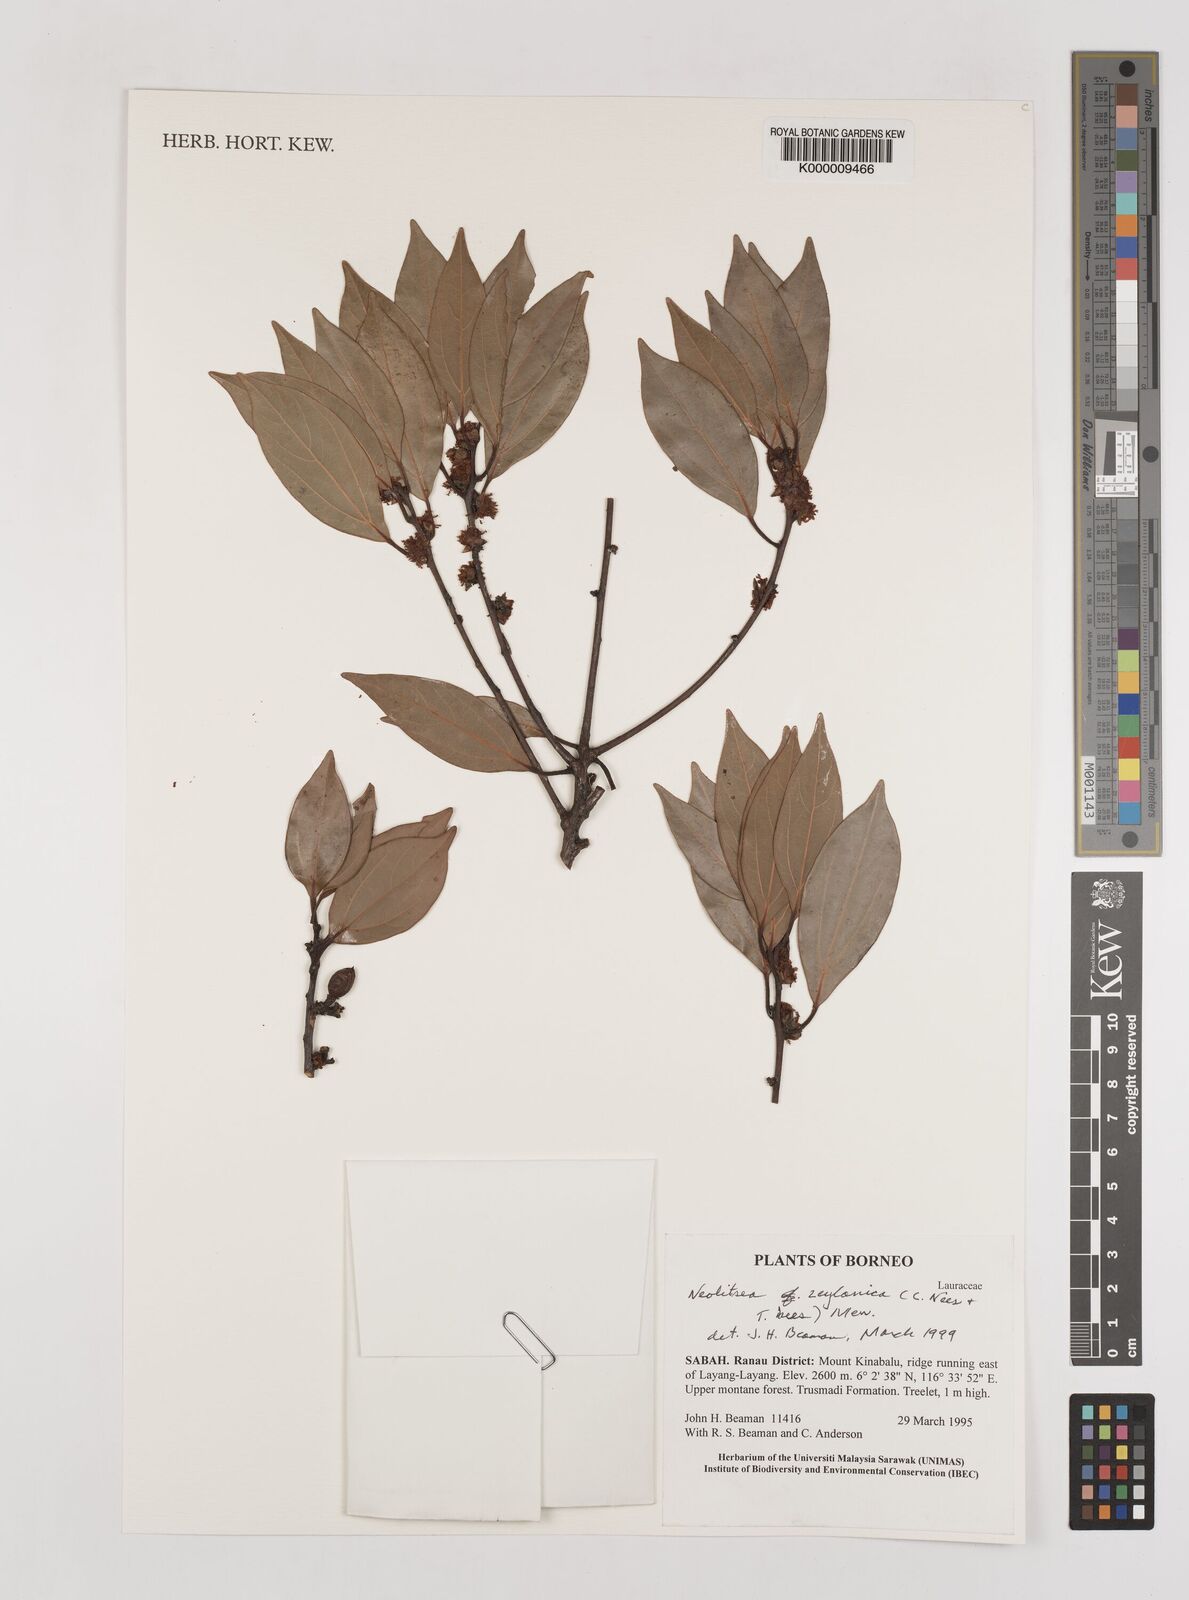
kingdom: Plantae
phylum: Tracheophyta
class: Magnoliopsida
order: Laurales
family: Lauraceae
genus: Neolitsea
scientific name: Neolitsea foliosa
